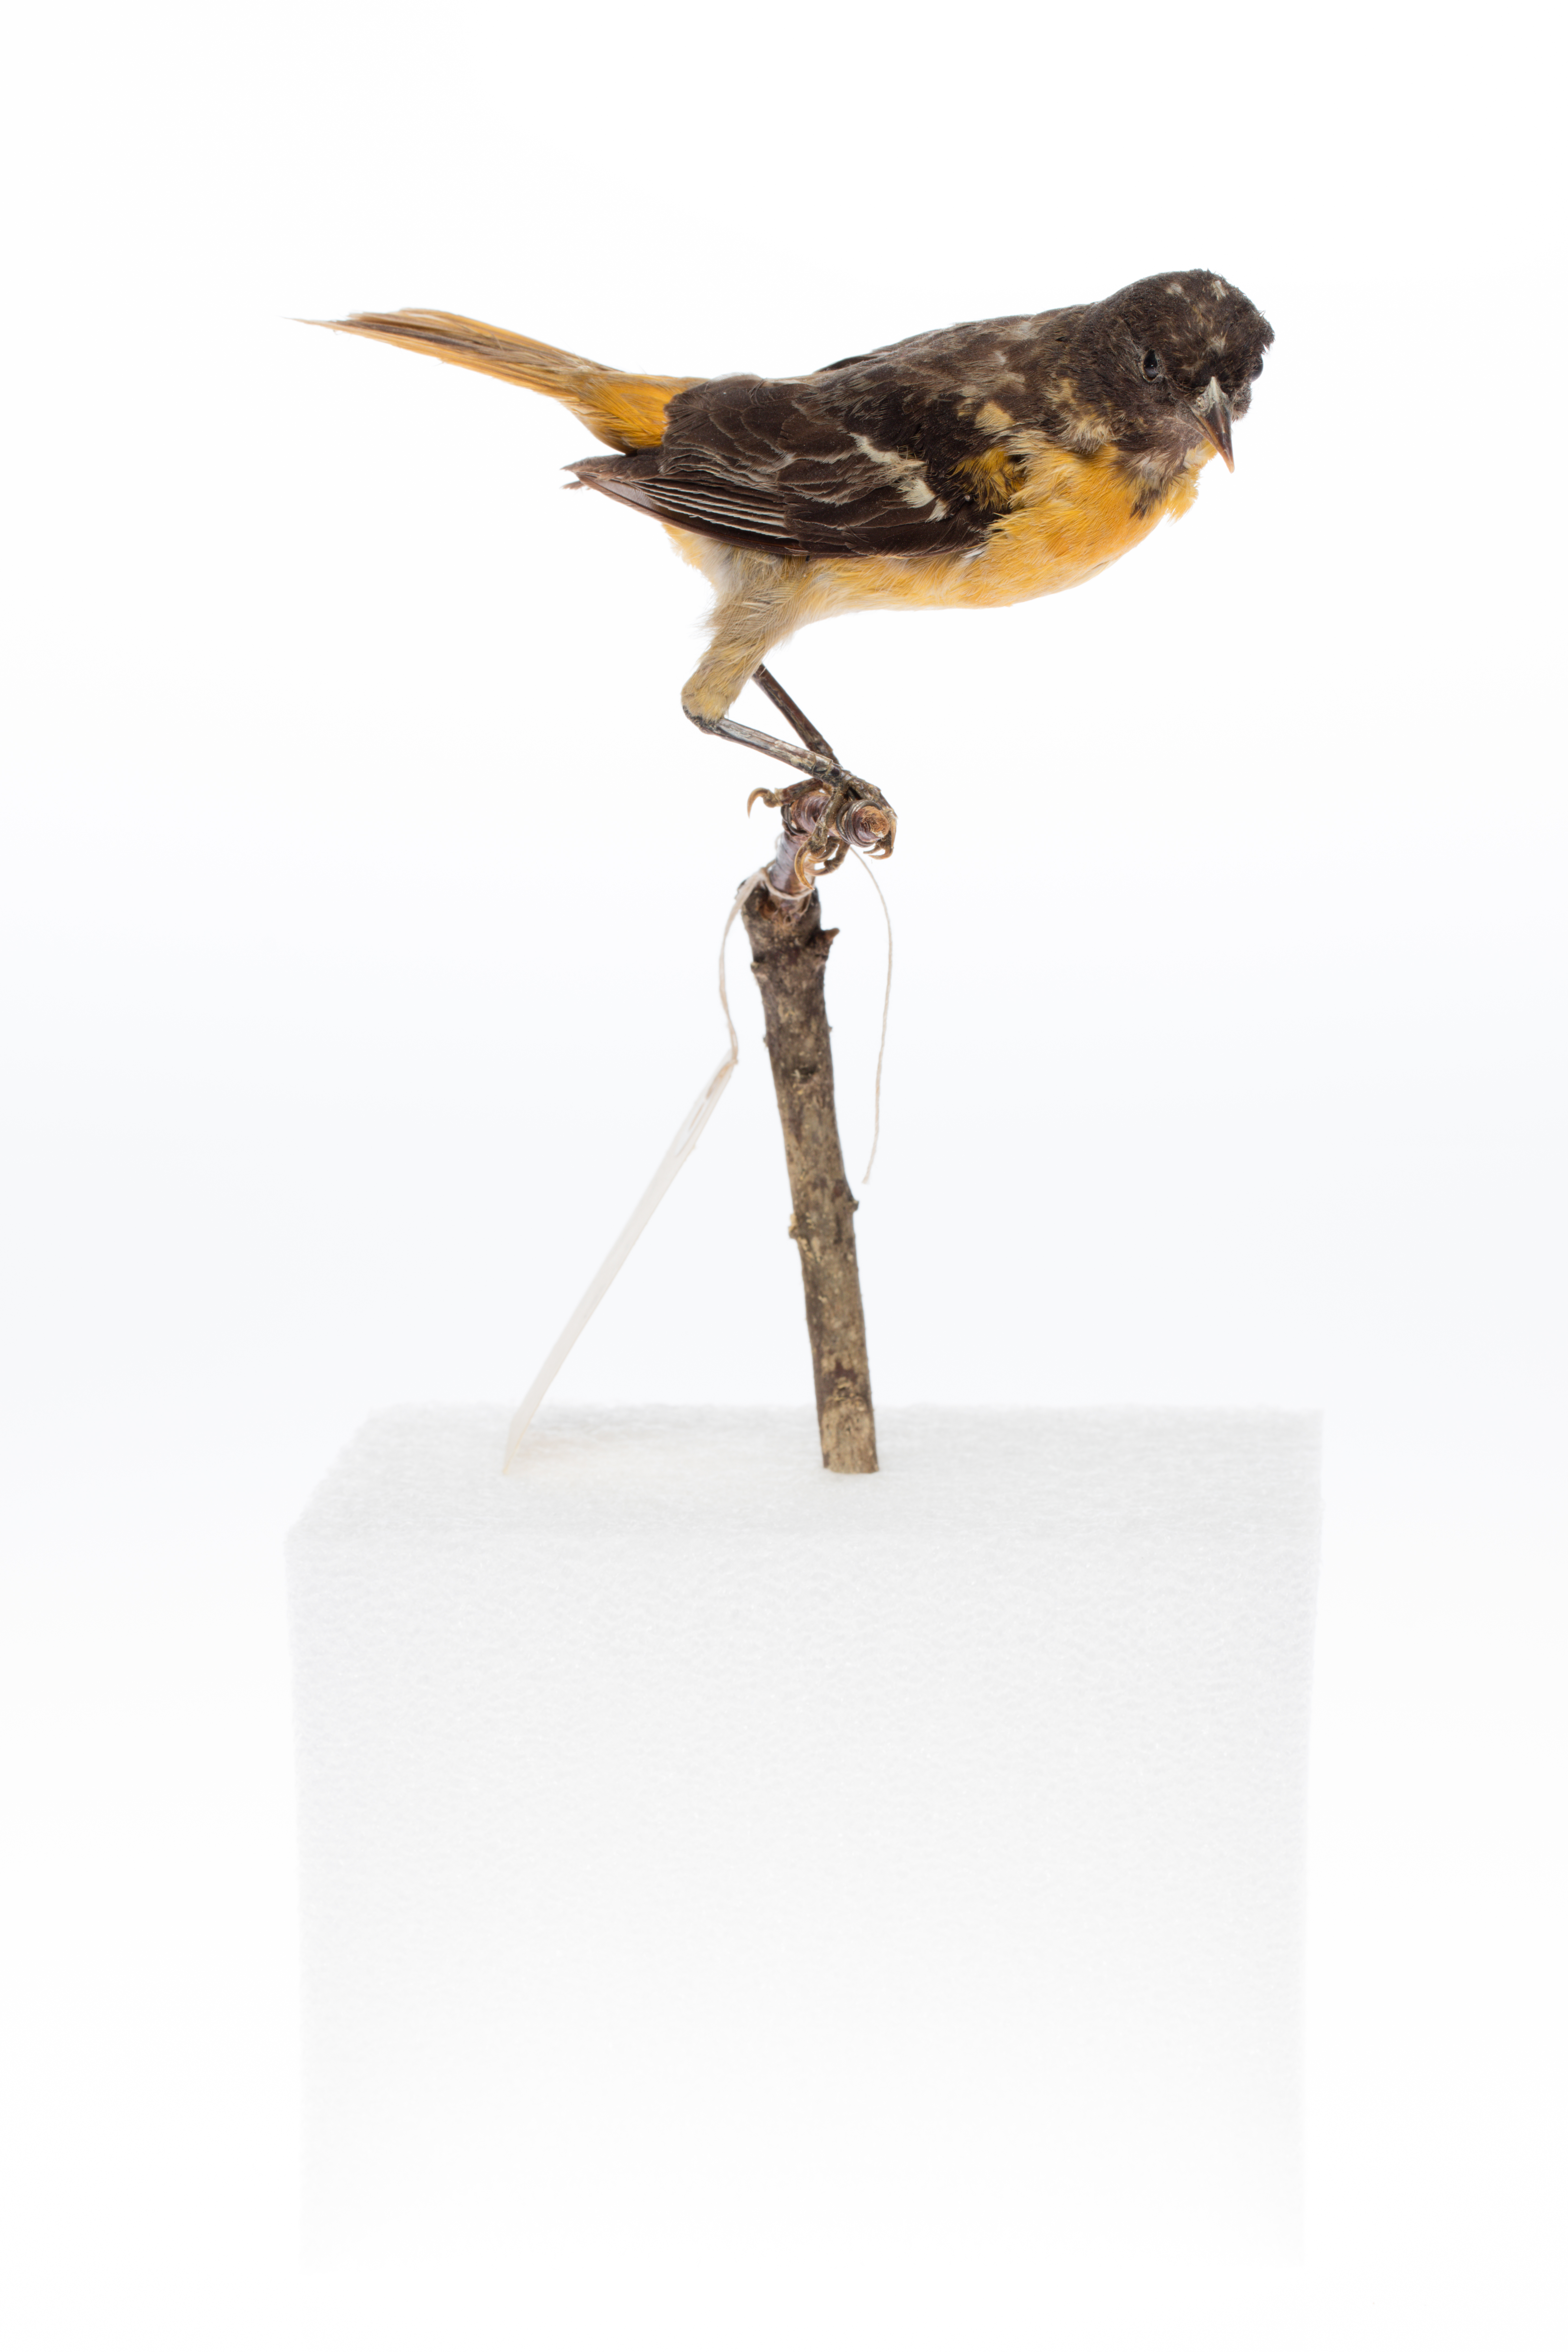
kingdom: Animalia
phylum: Chordata
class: Aves
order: Passeriformes
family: Icteridae
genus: Icterus
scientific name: Icterus galbula
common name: Baltimore oriole
